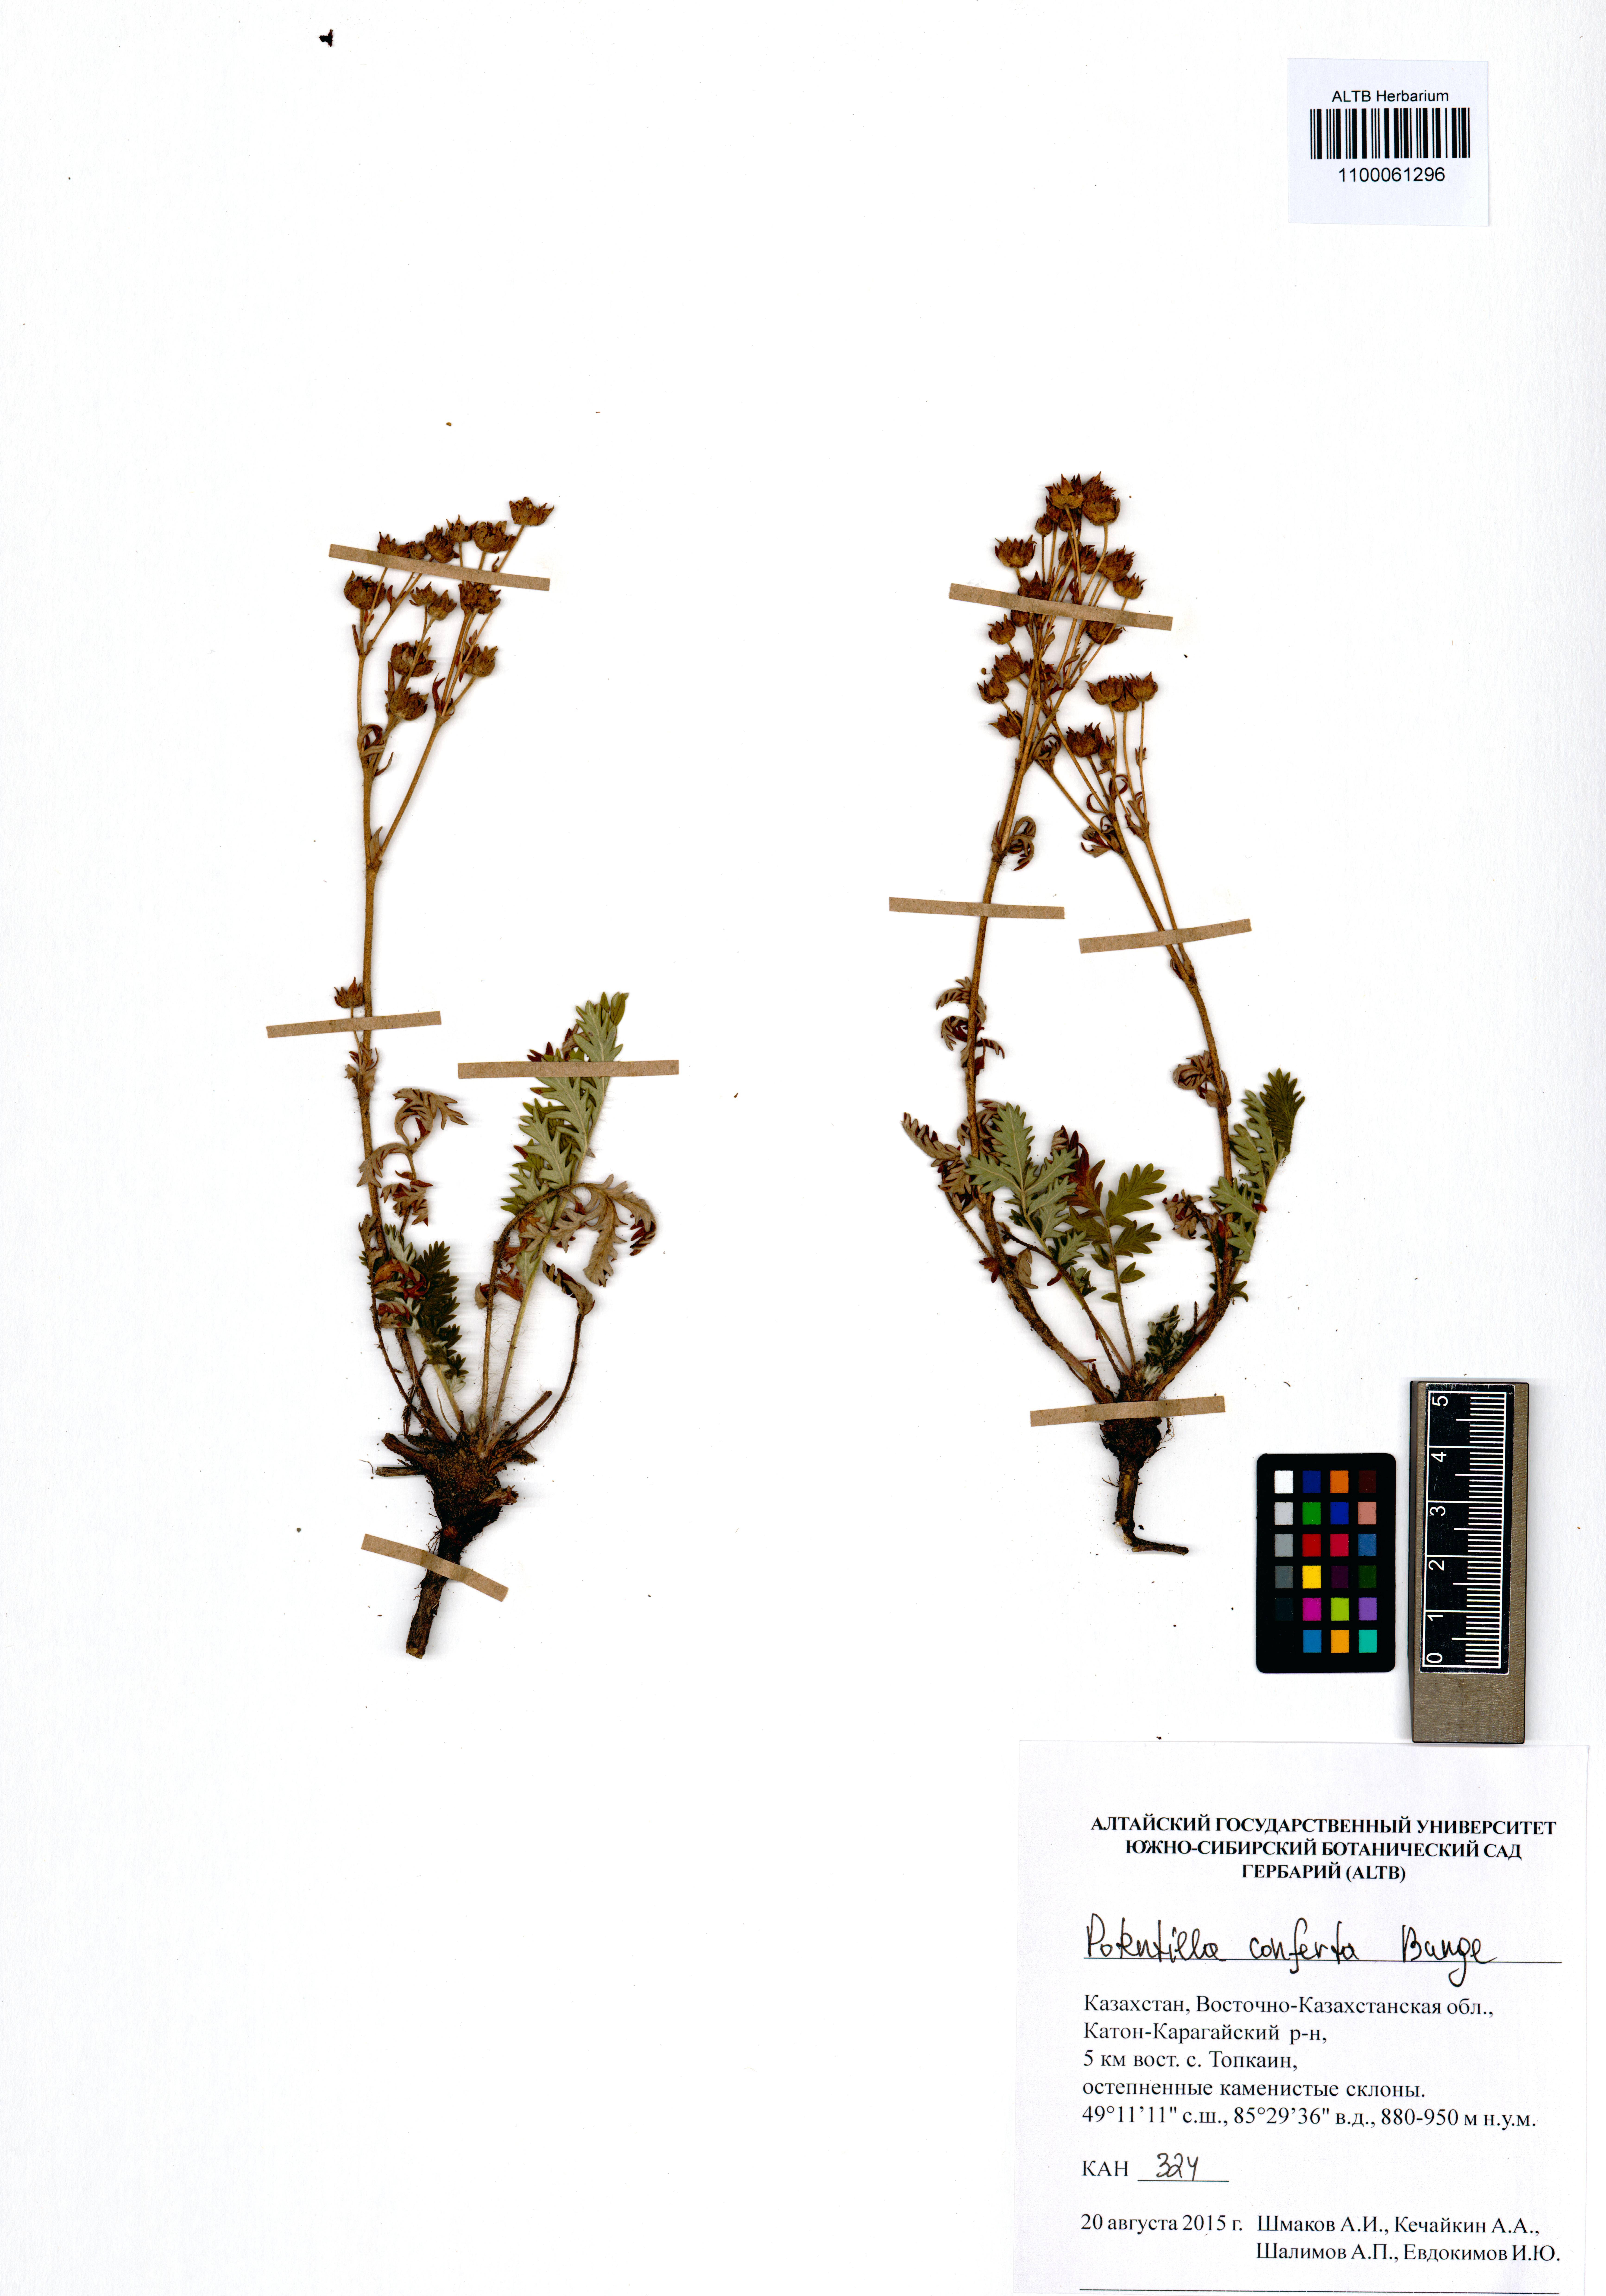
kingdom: Plantae
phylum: Tracheophyta
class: Magnoliopsida
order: Rosales
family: Rosaceae
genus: Potentilla
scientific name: Potentilla conferta
